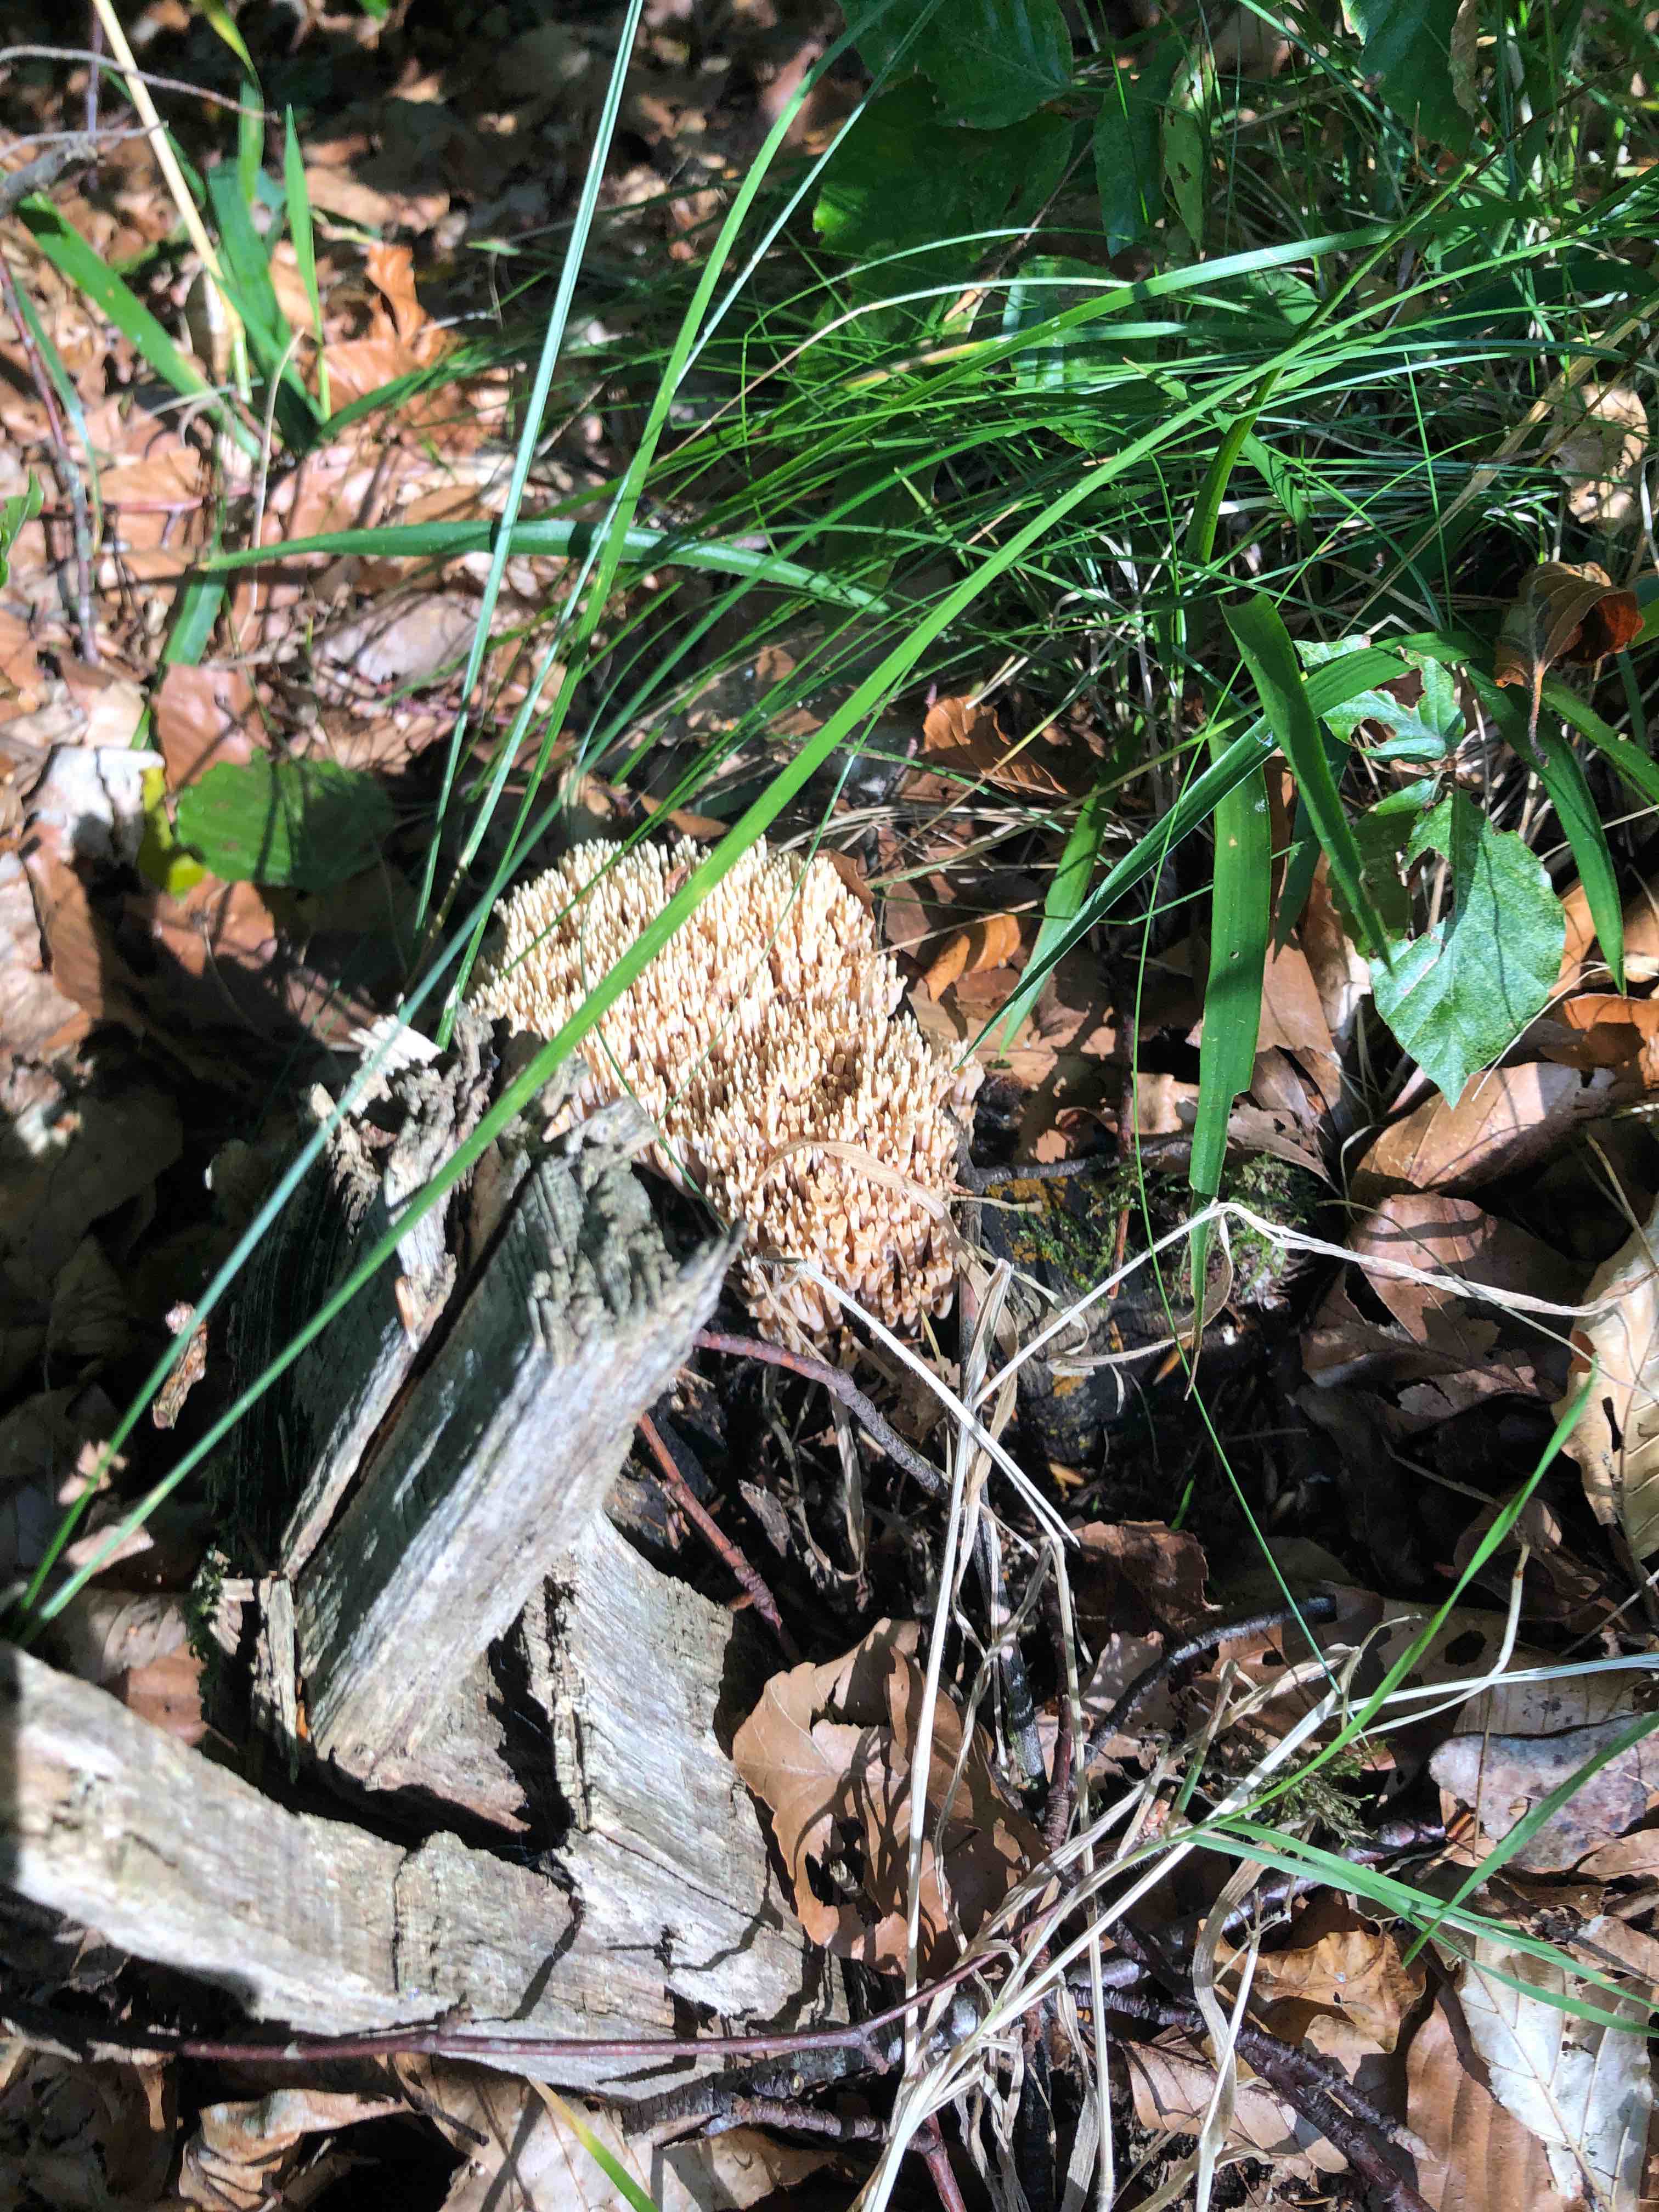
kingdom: Fungi
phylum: Basidiomycota
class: Agaricomycetes
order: Gomphales
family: Gomphaceae
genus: Ramaria
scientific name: Ramaria stricta
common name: rank koralsvamp
